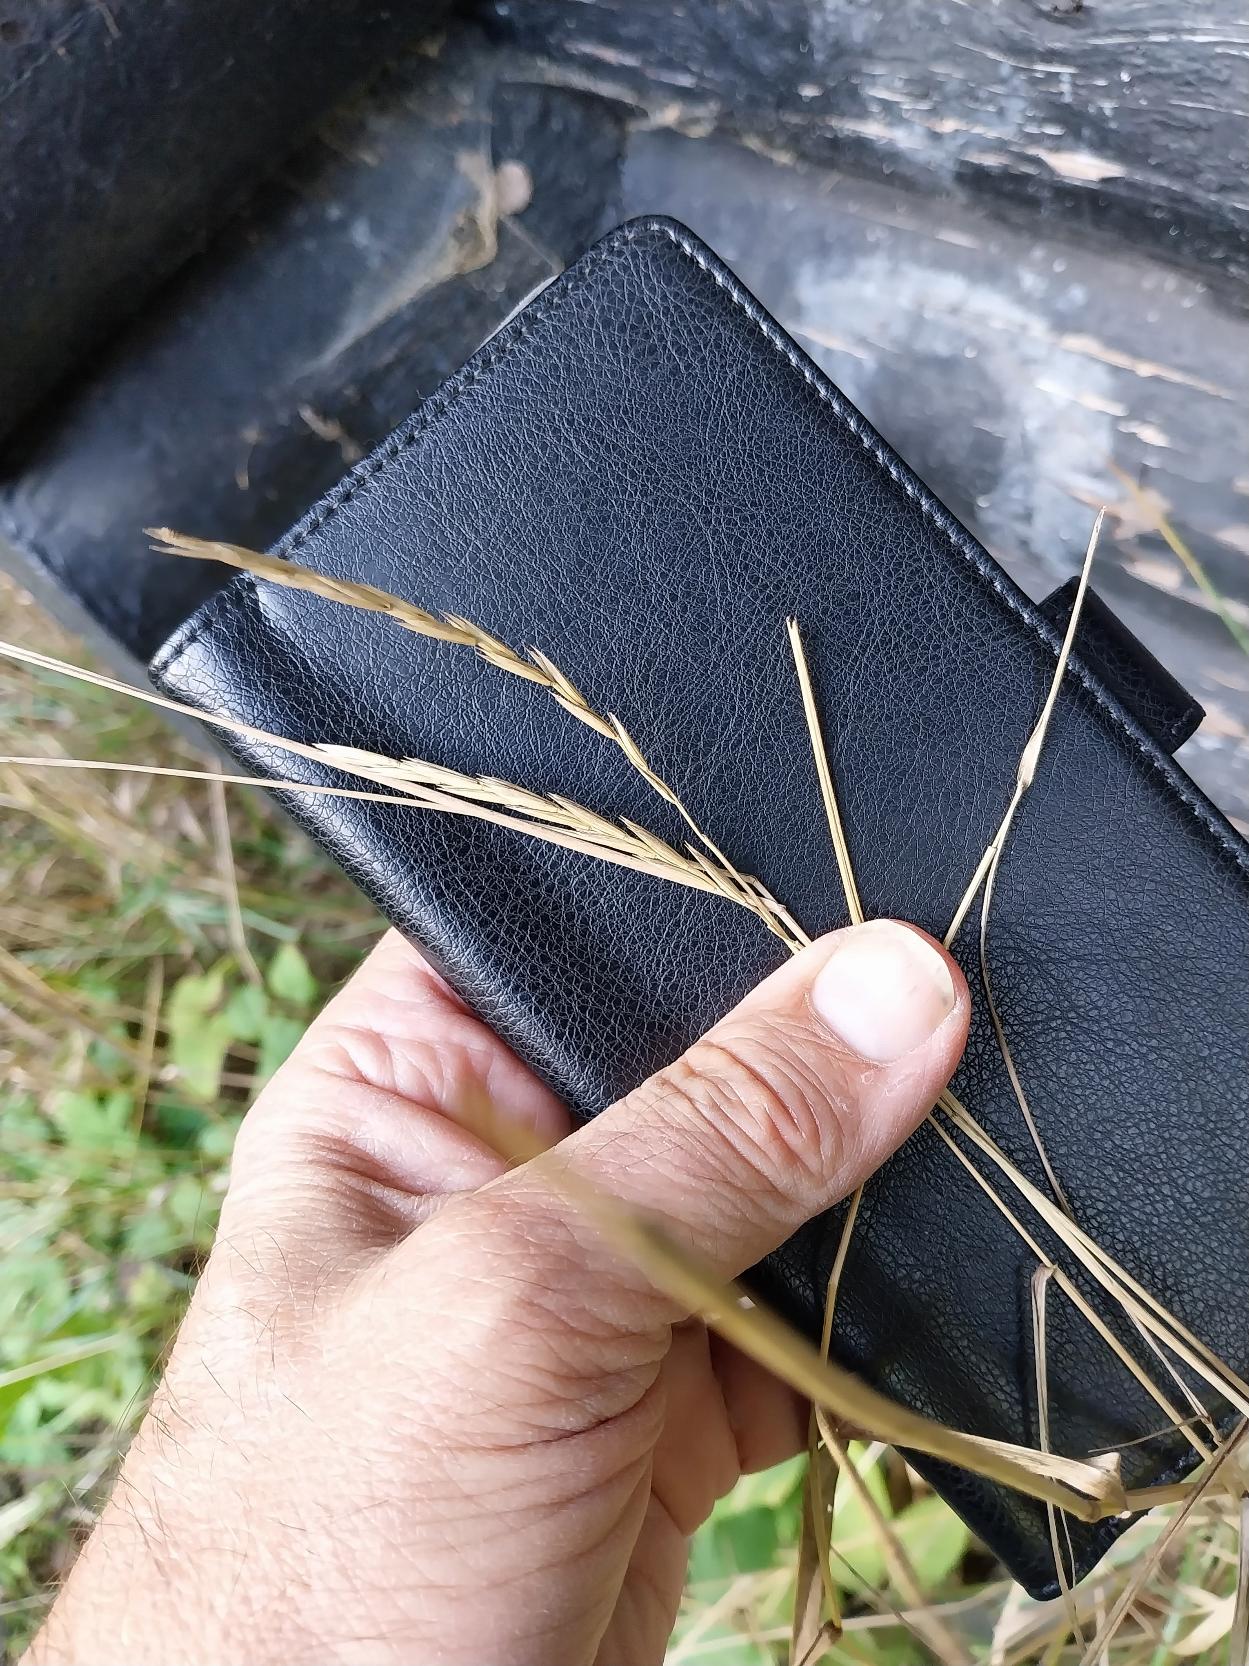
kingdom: Plantae
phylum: Tracheophyta
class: Liliopsida
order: Poales
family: Poaceae
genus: Elymus
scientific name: Elymus repens
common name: Almindelig kvik
